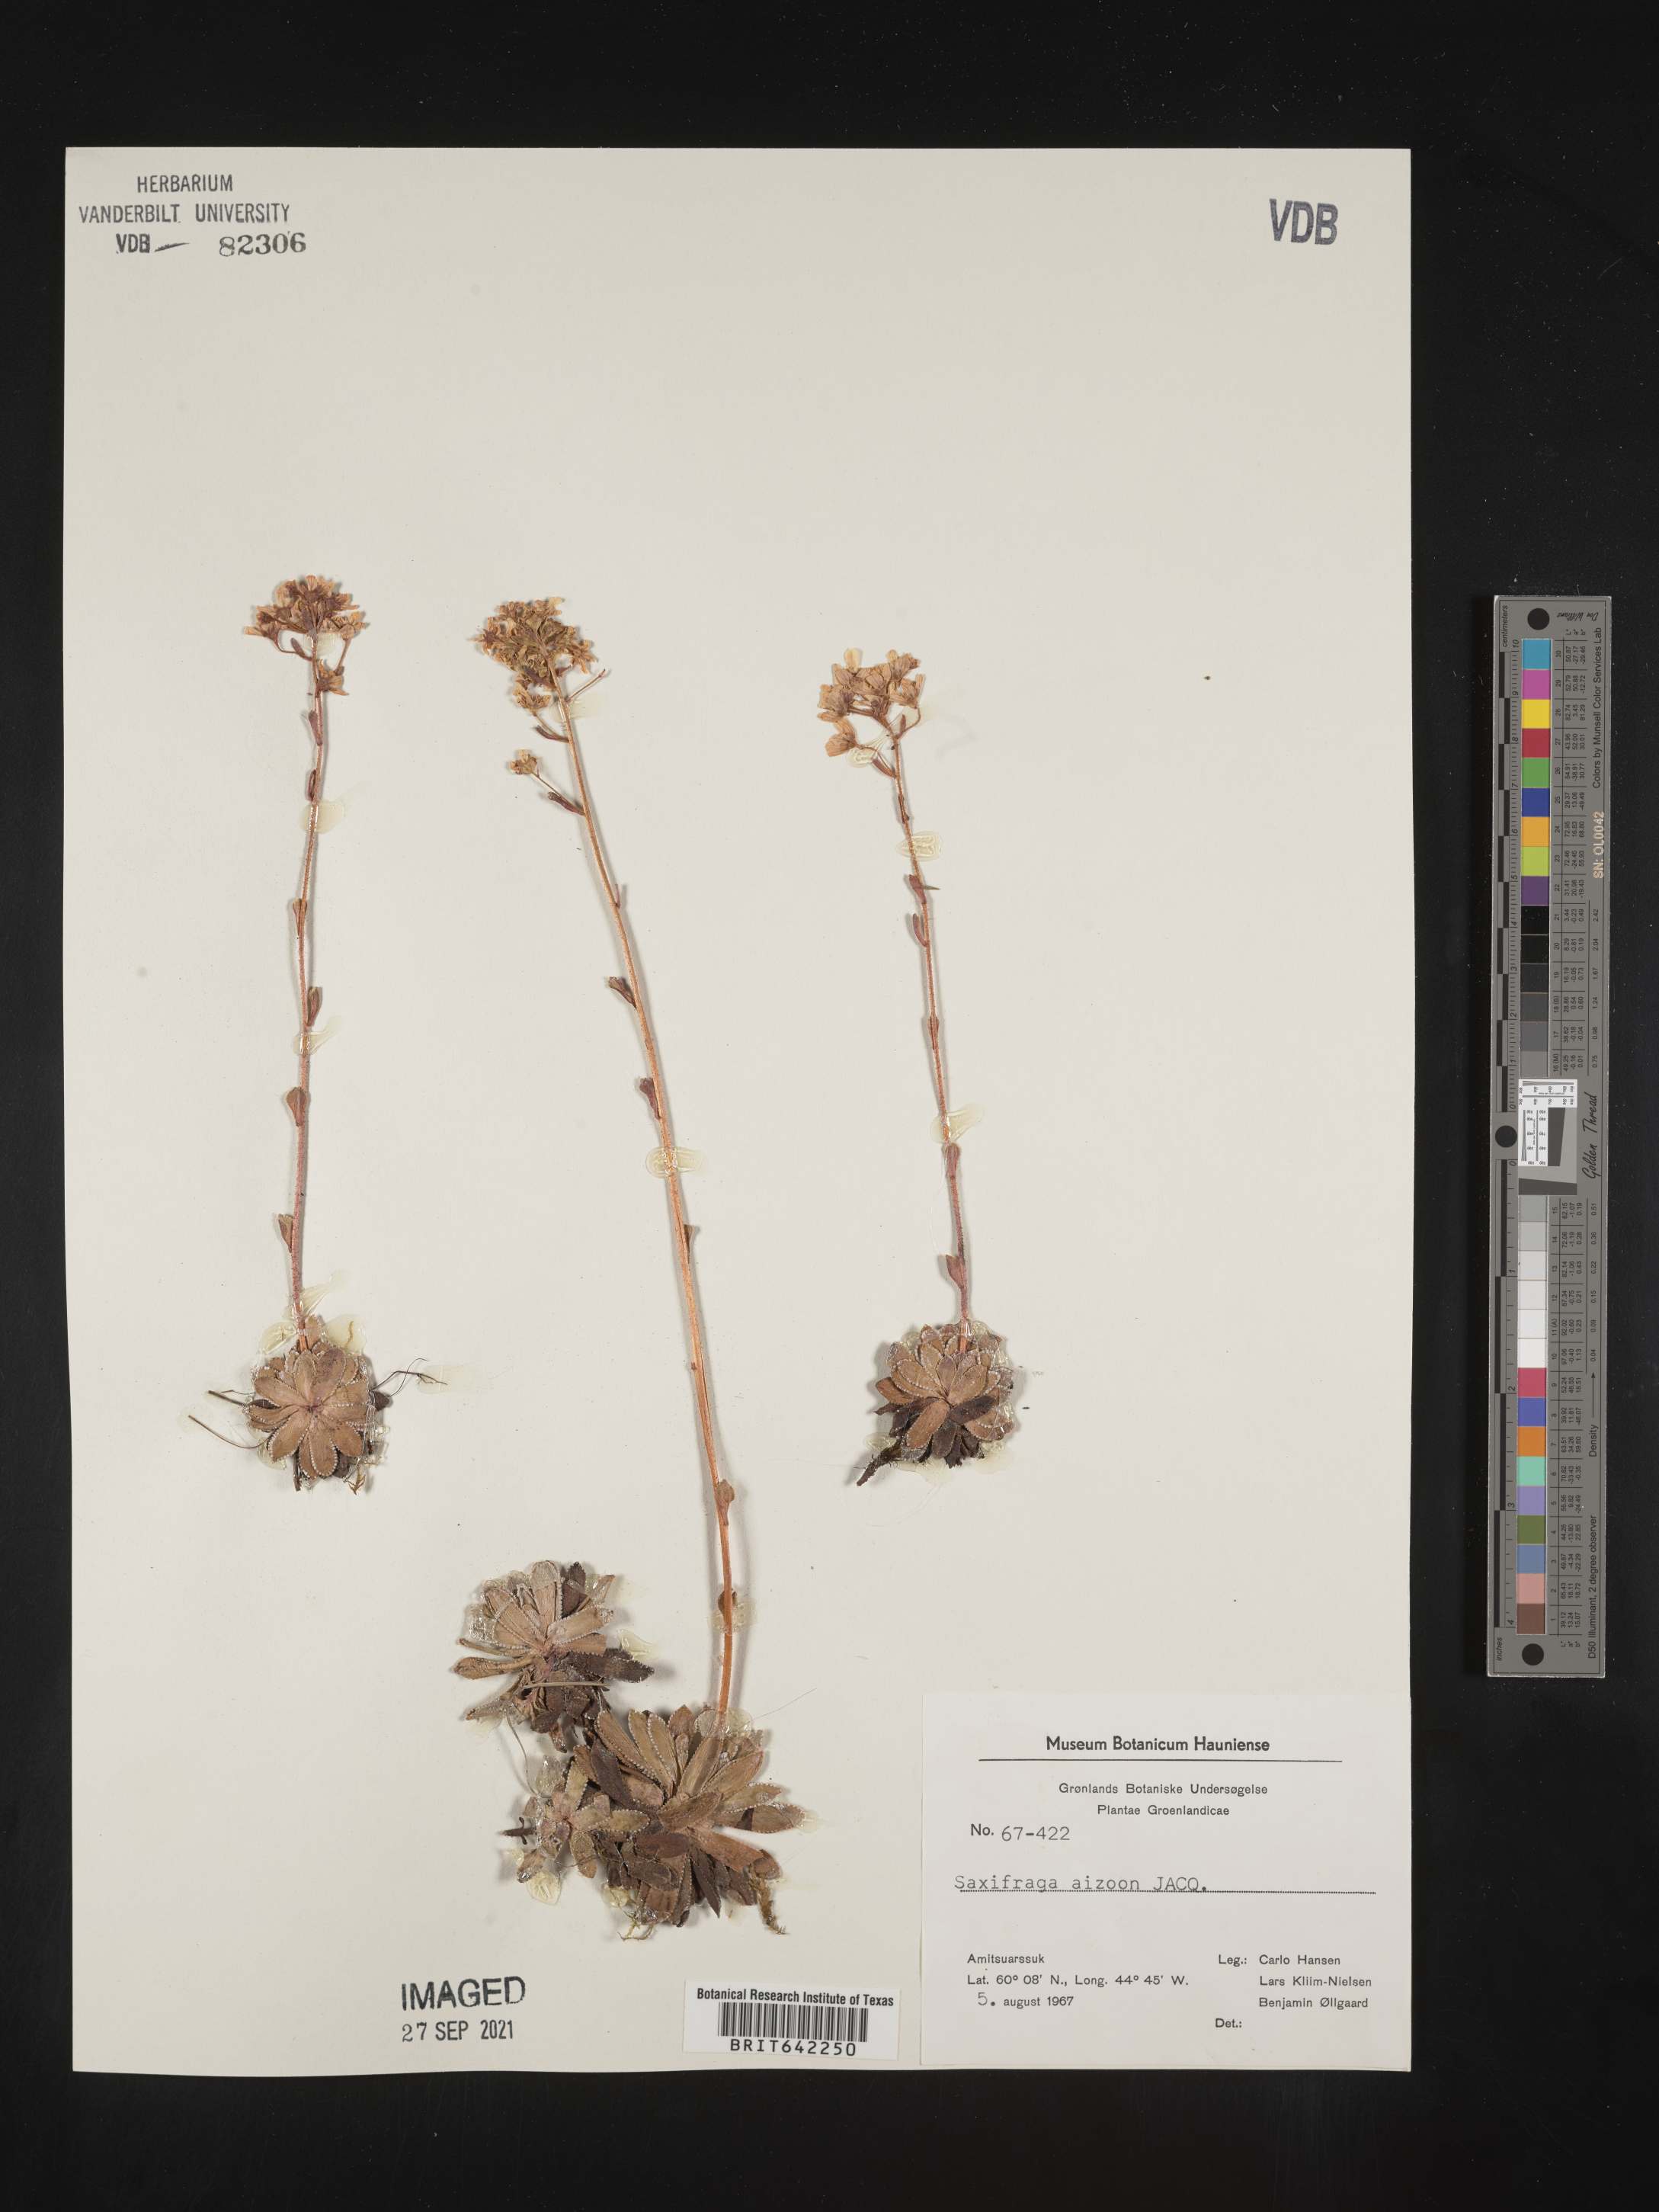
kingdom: Plantae
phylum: Tracheophyta
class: Magnoliopsida
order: Saxifragales
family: Saxifragaceae
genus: Saxifraga
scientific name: Saxifraga
